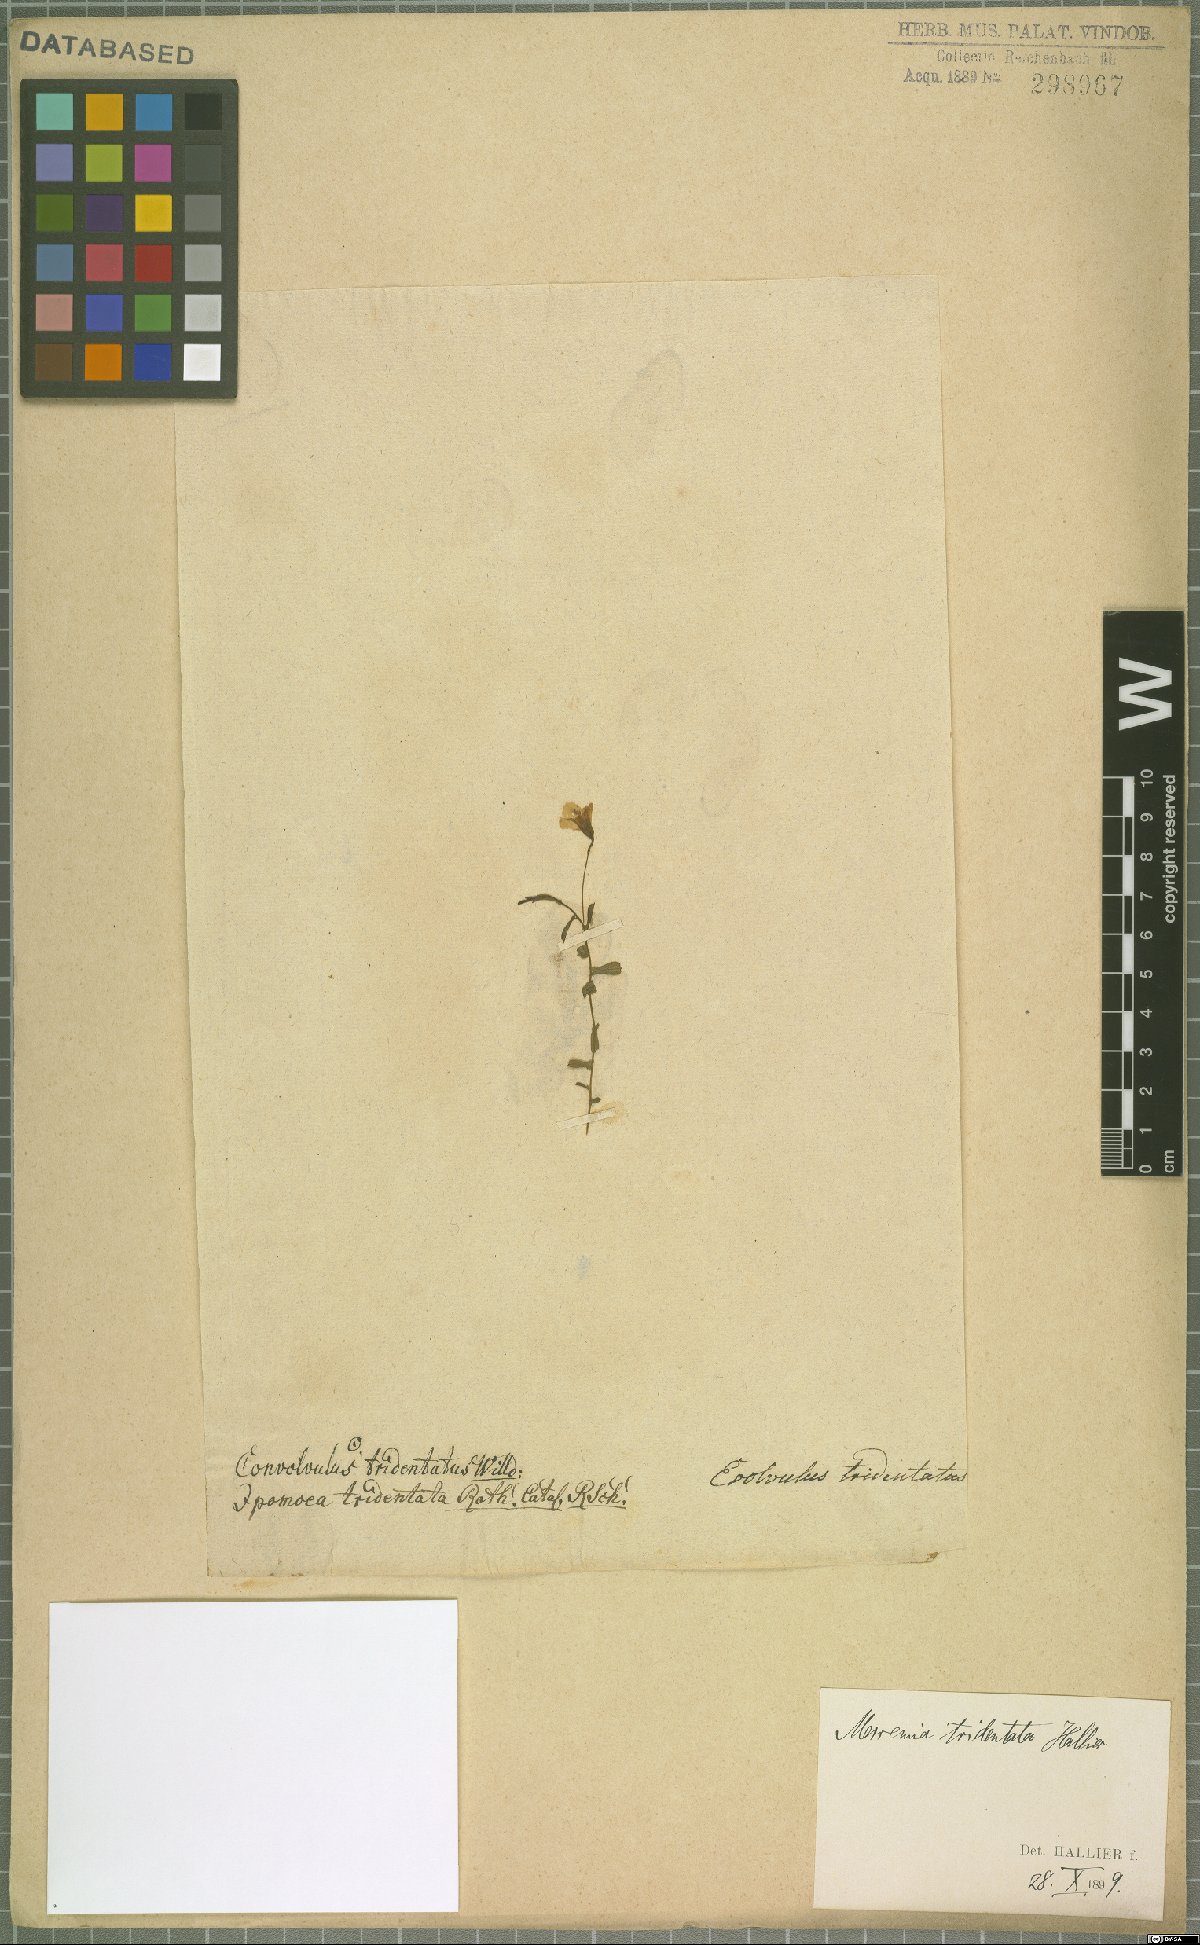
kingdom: Plantae
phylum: Tracheophyta
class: Magnoliopsida
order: Solanales
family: Convolvulaceae
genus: Xenostegia
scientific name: Xenostegia tridentata
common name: African morningvine
